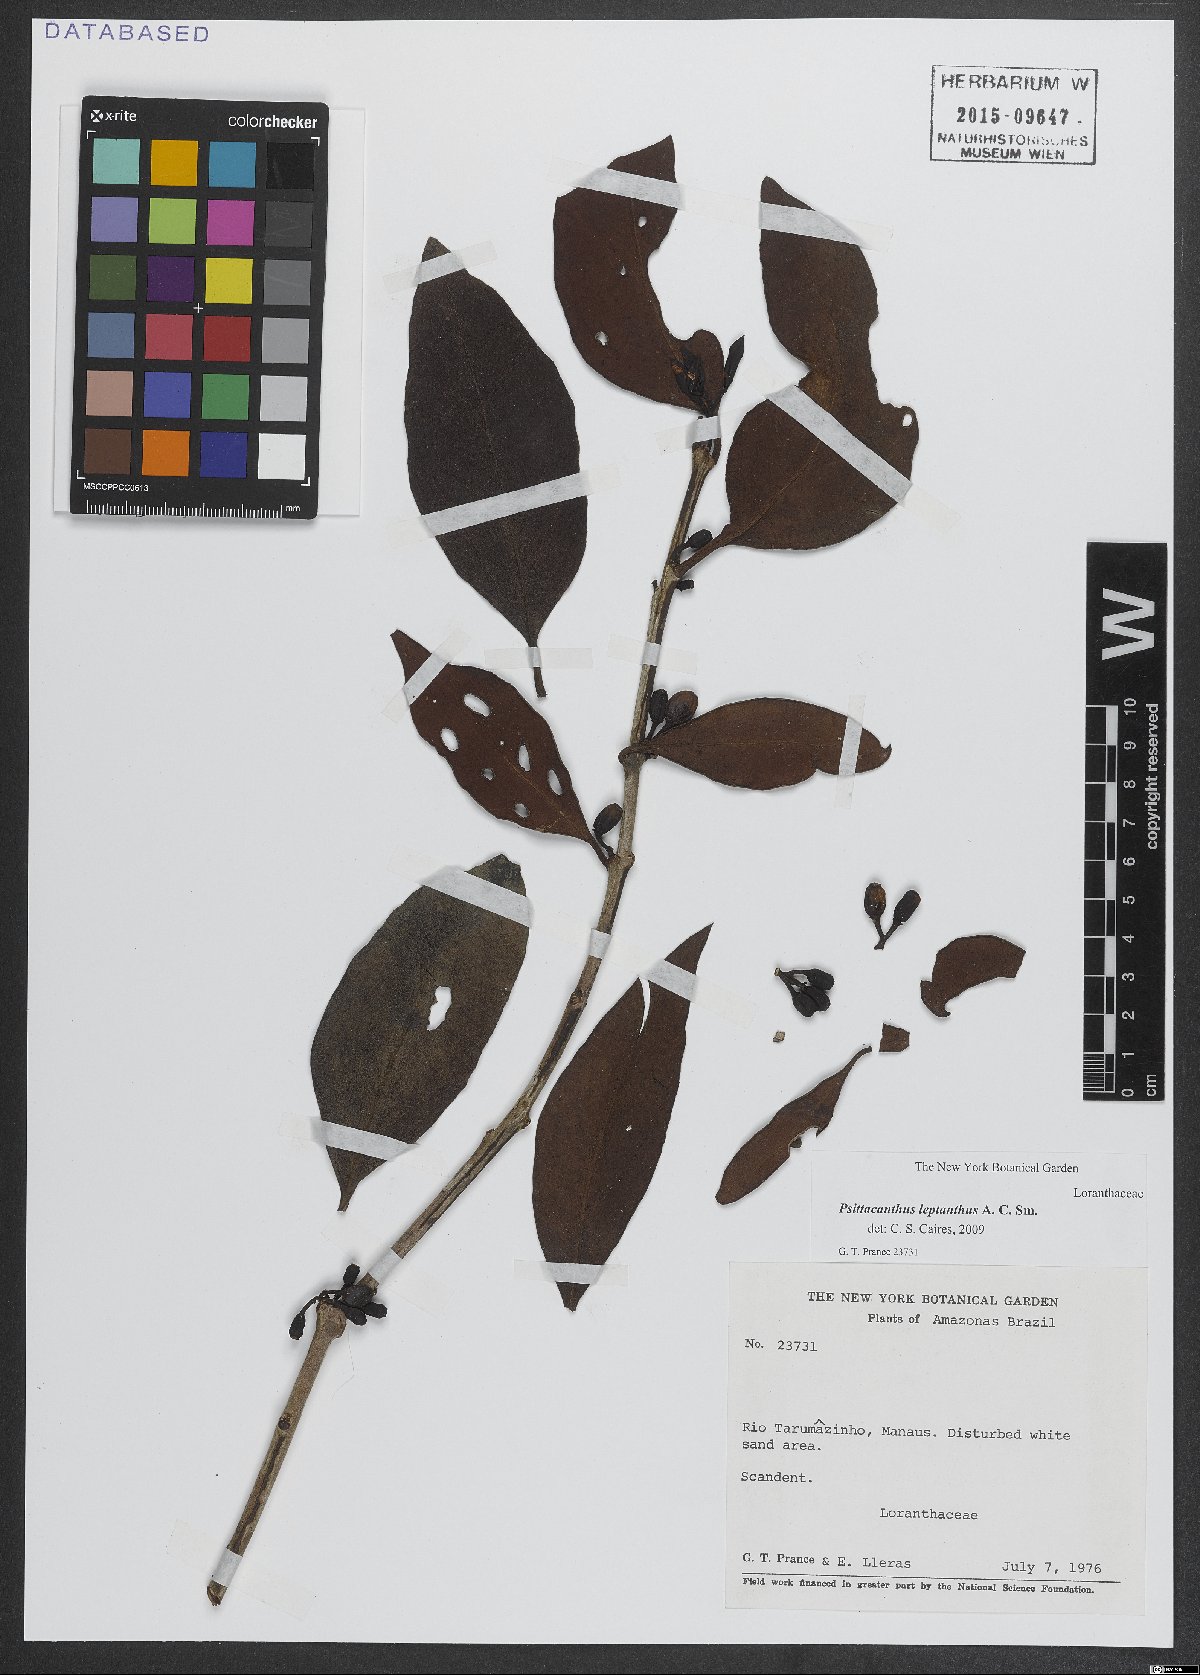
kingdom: Plantae
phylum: Tracheophyta
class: Magnoliopsida
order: Santalales
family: Loranthaceae
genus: Psittacanthus
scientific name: Psittacanthus leptanthus
